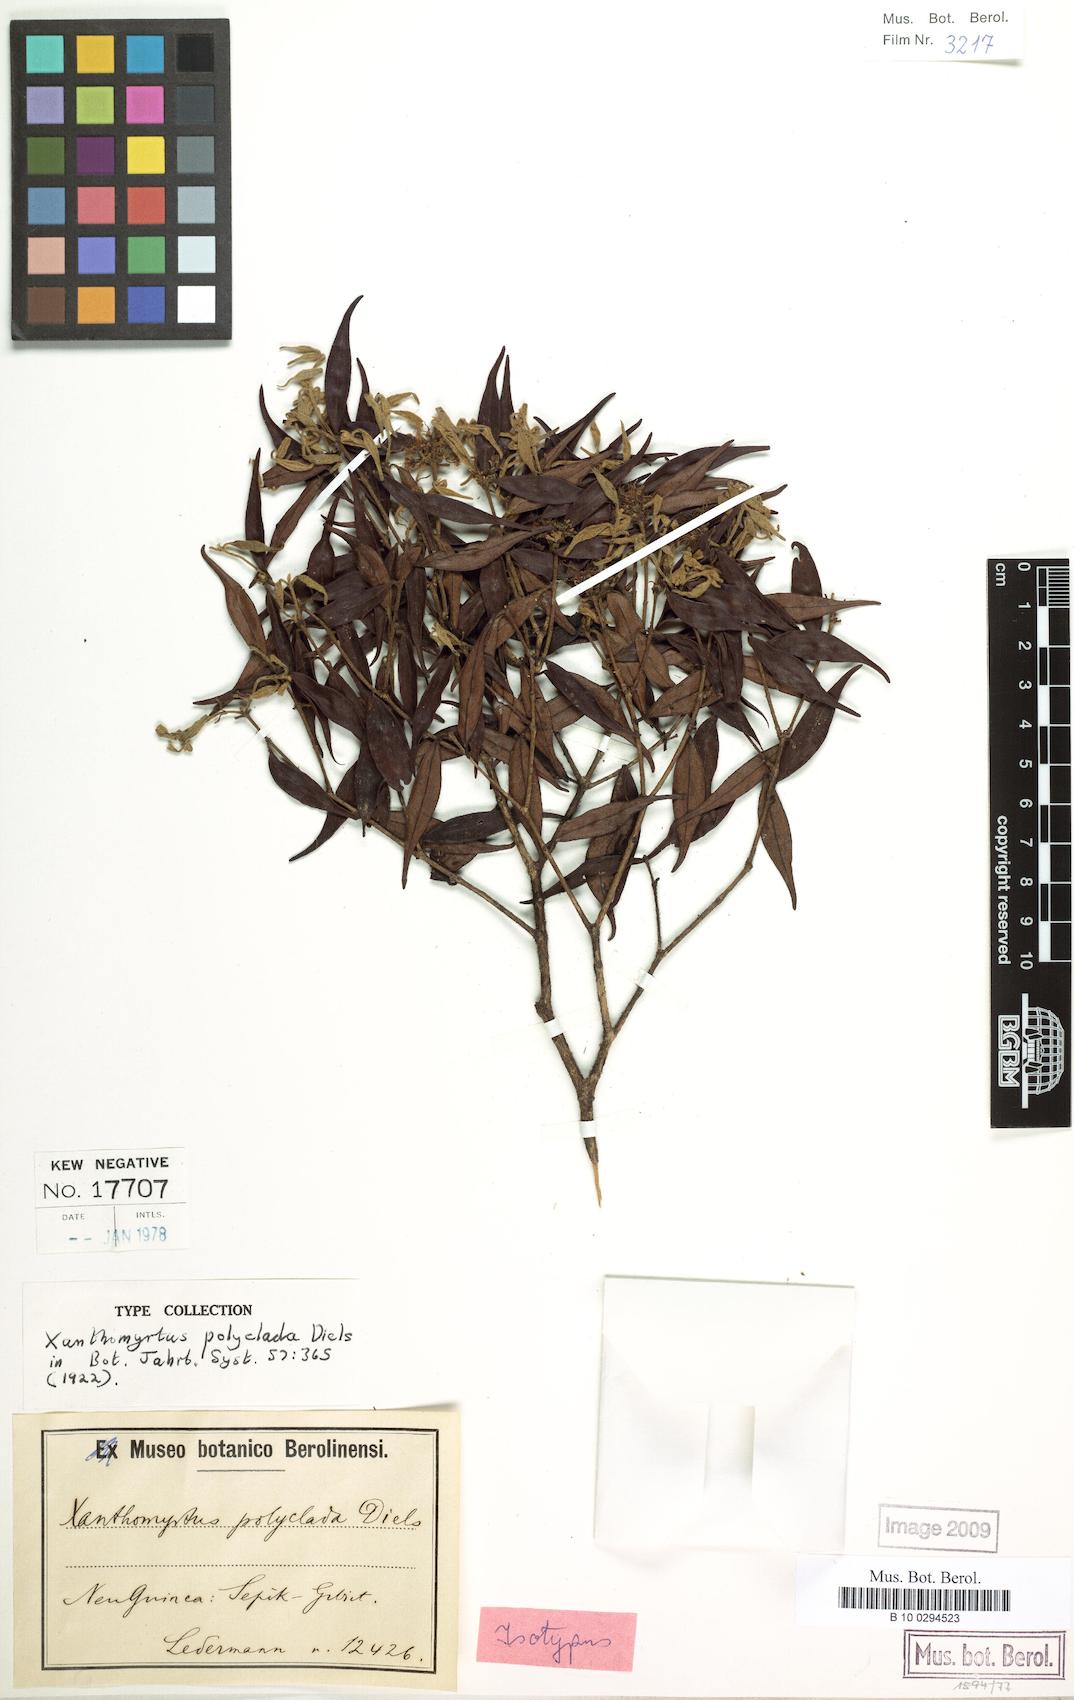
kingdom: Plantae
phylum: Tracheophyta
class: Magnoliopsida
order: Myrtales
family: Myrtaceae
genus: Xanthomyrtus
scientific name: Xanthomyrtus polyclada
